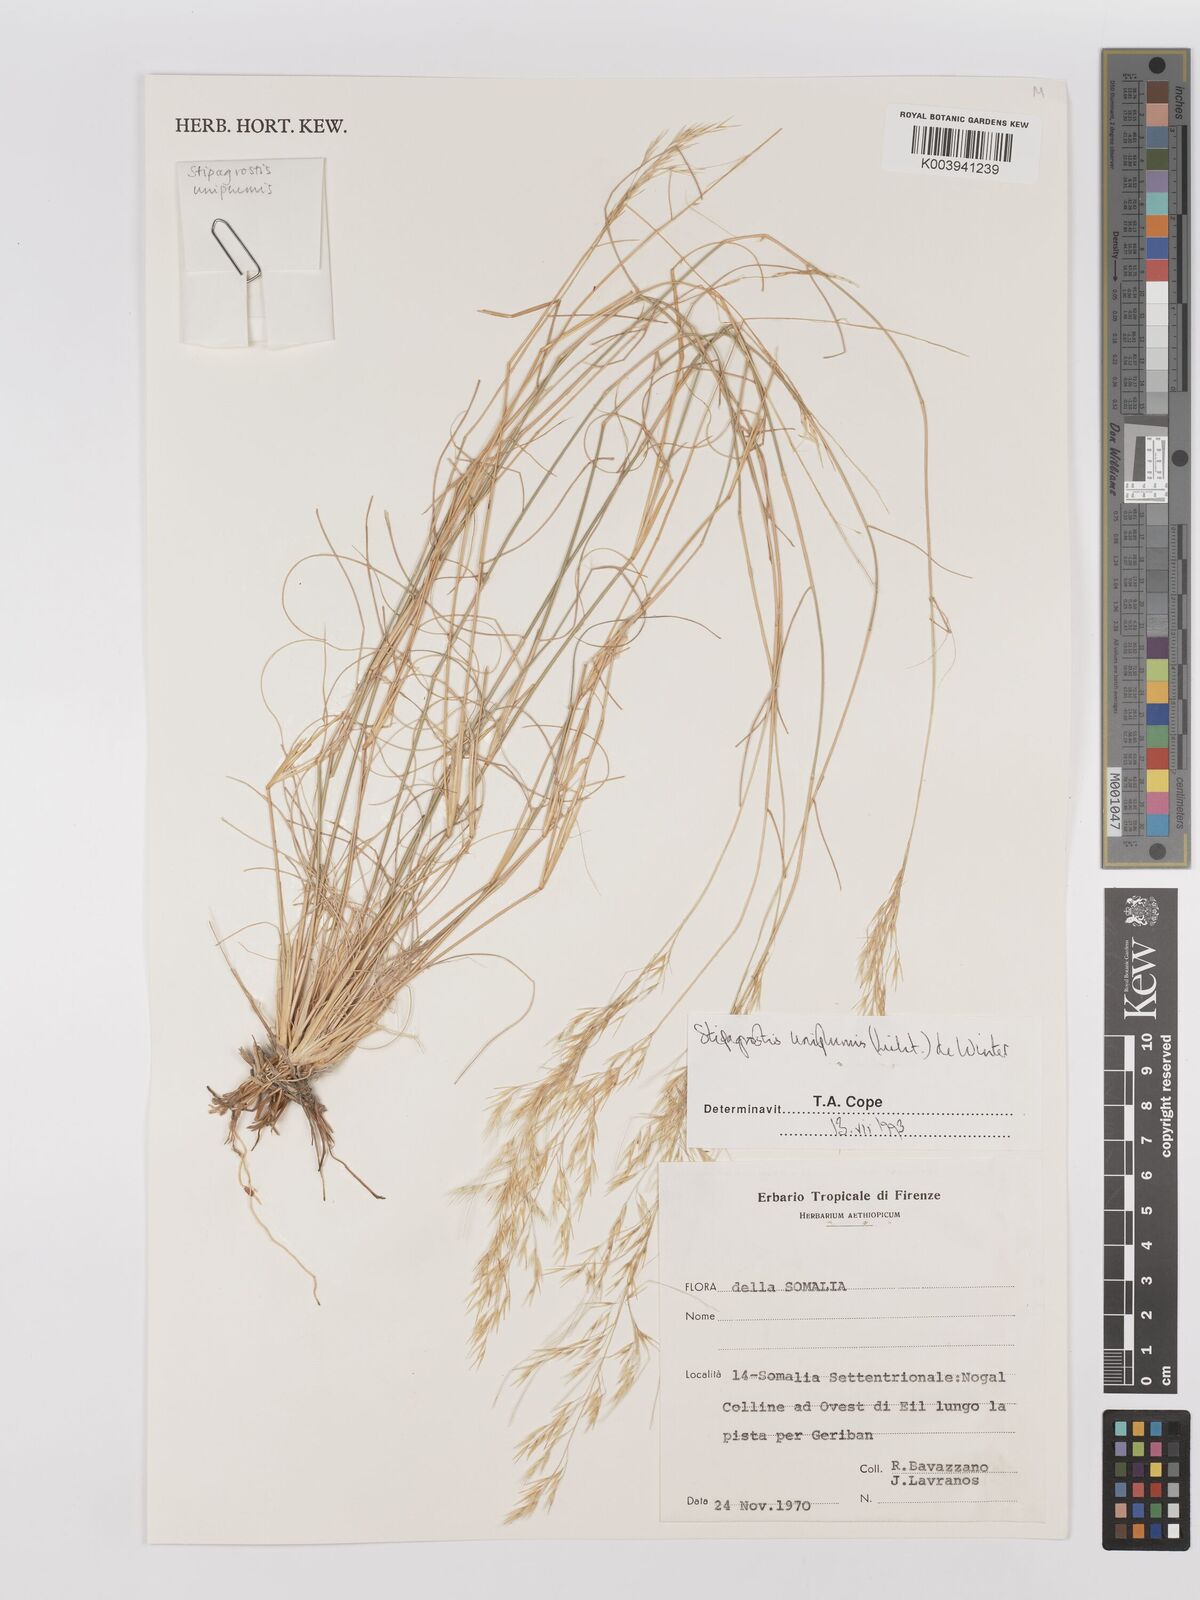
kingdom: Plantae
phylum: Tracheophyta
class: Liliopsida
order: Poales
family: Poaceae
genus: Stipagrostis
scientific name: Stipagrostis uniplumis
